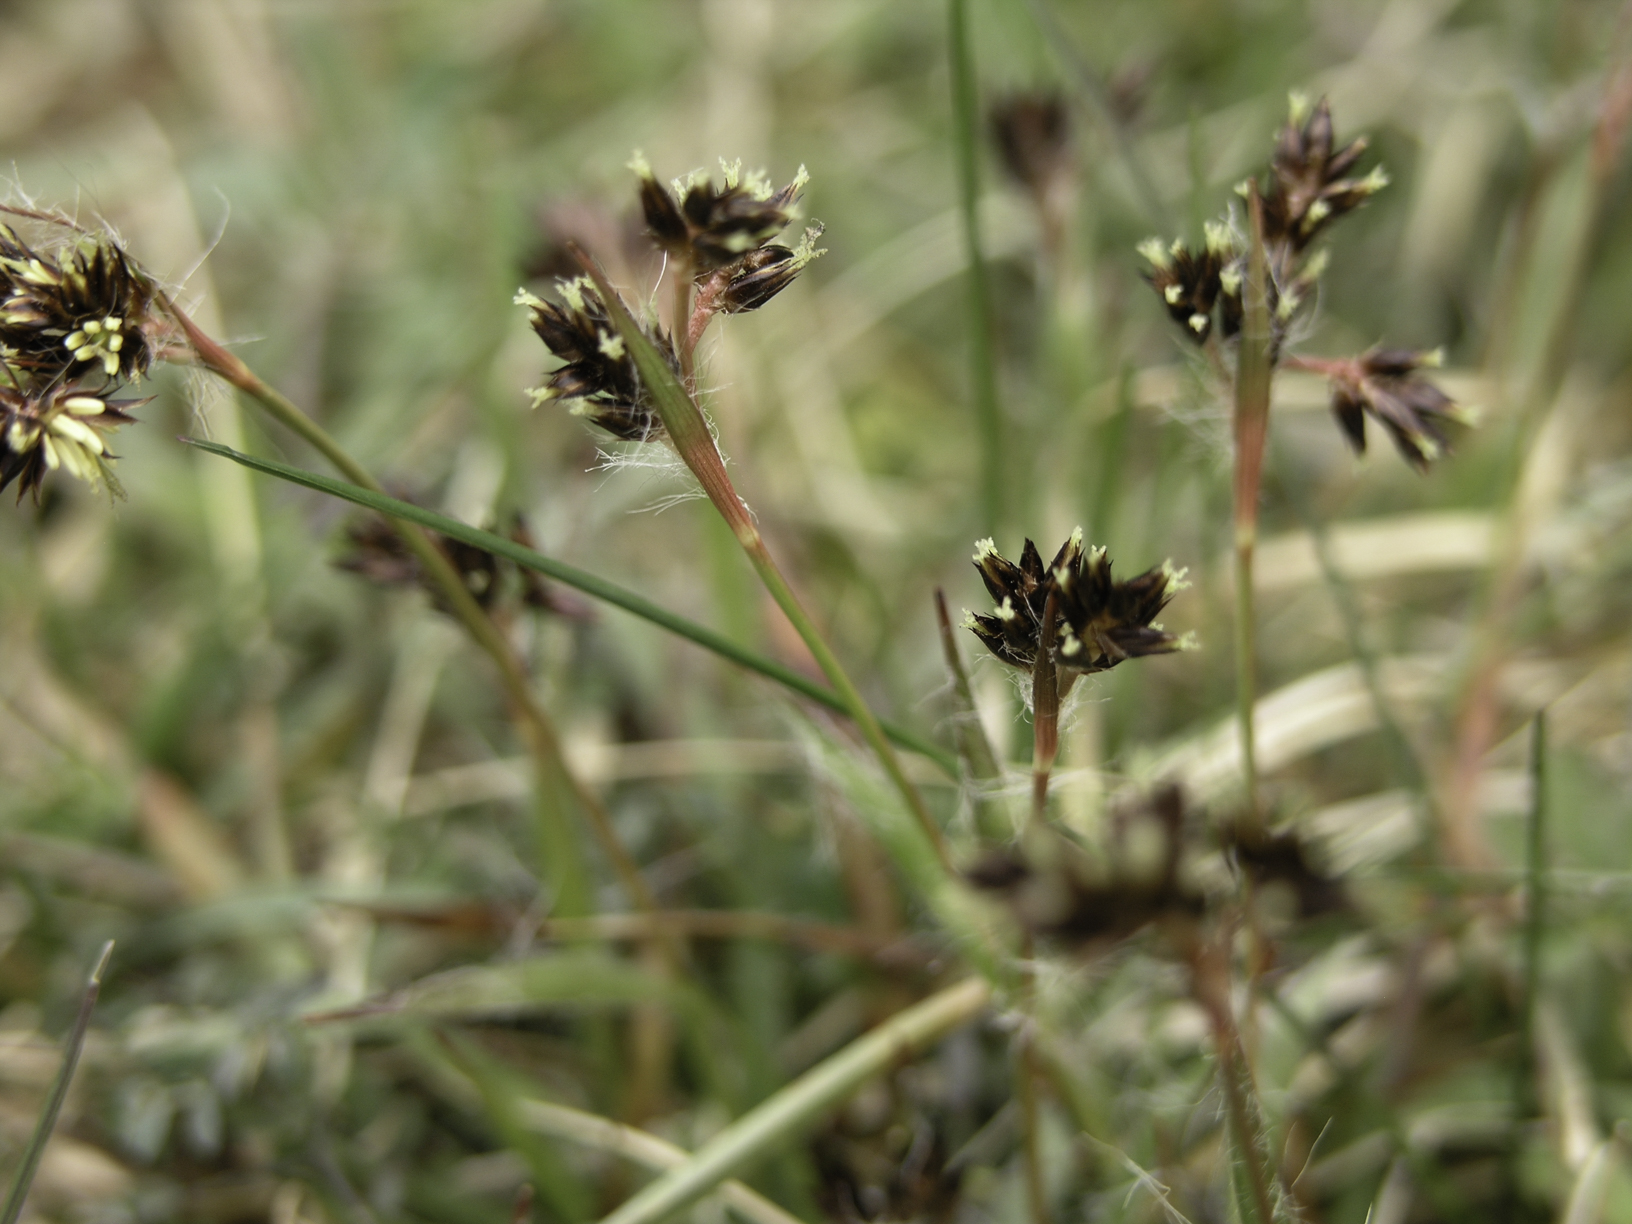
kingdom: Plantae
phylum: Tracheophyta
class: Liliopsida
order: Poales
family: Juncaceae
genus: Luzula
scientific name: Luzula campestris
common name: Field wood-rush
